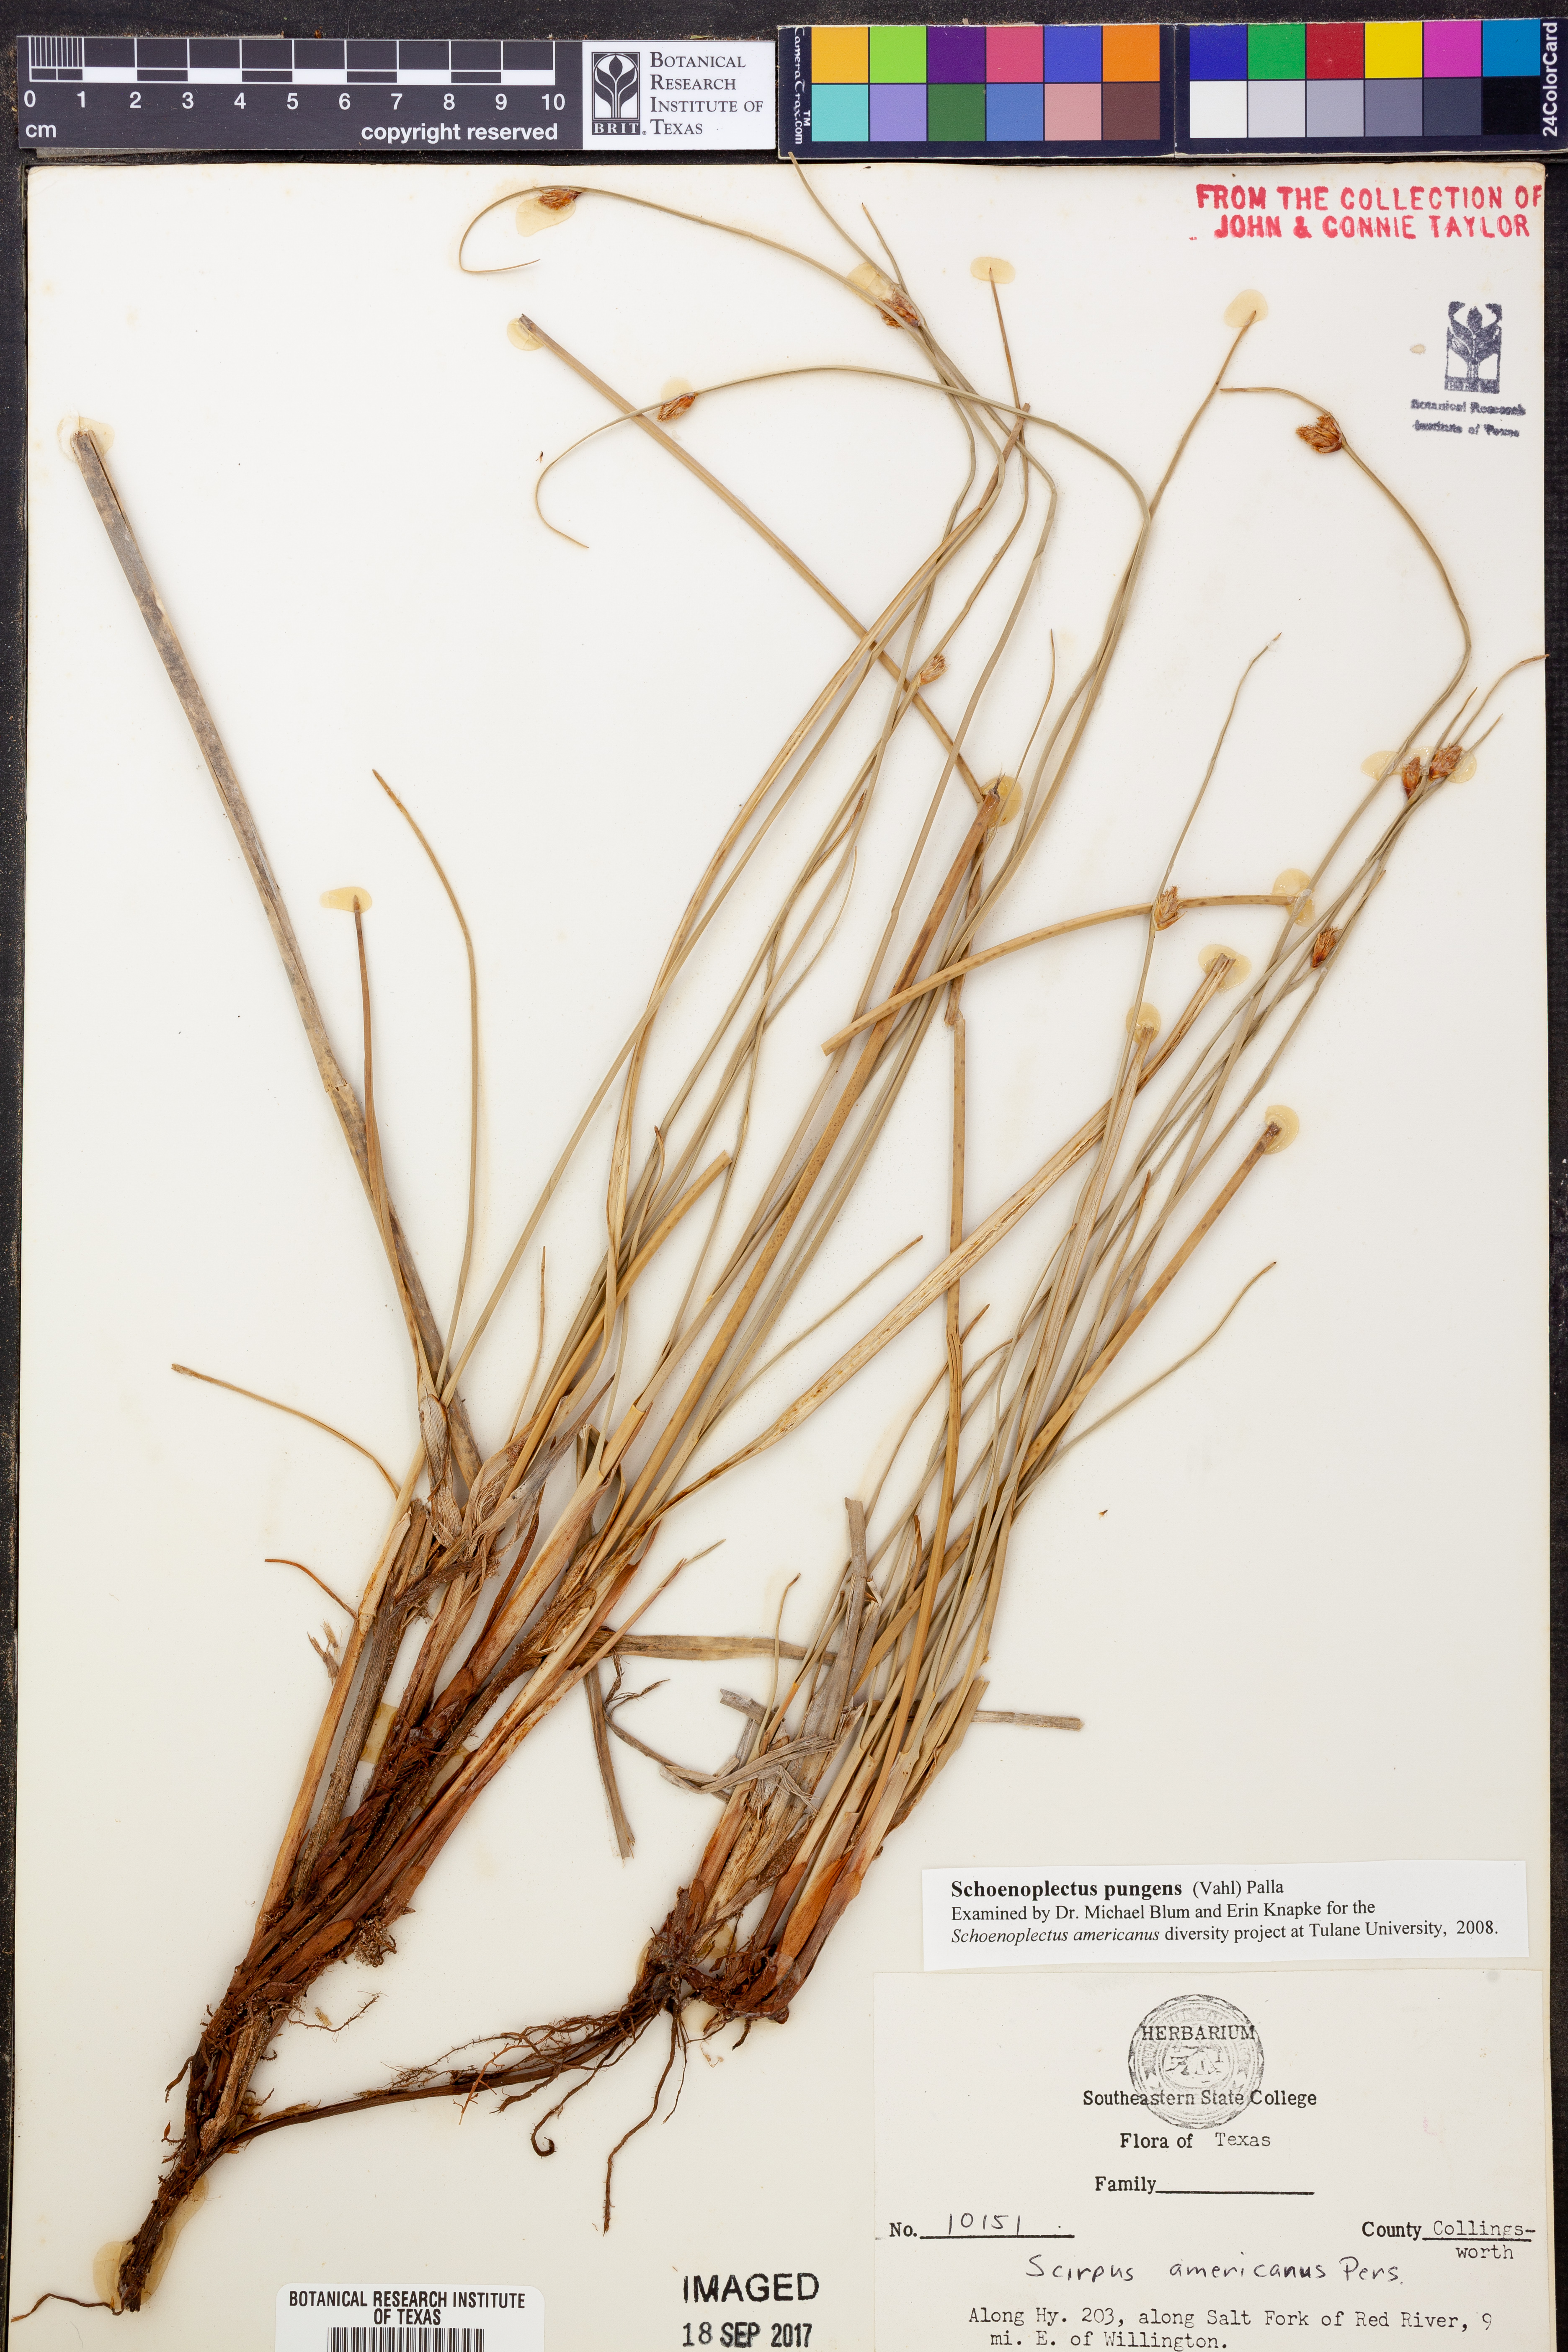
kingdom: Plantae
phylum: Tracheophyta
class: Liliopsida
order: Poales
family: Cyperaceae
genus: Schoenoplectus
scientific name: Schoenoplectus pungens
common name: Sharp club-rush
